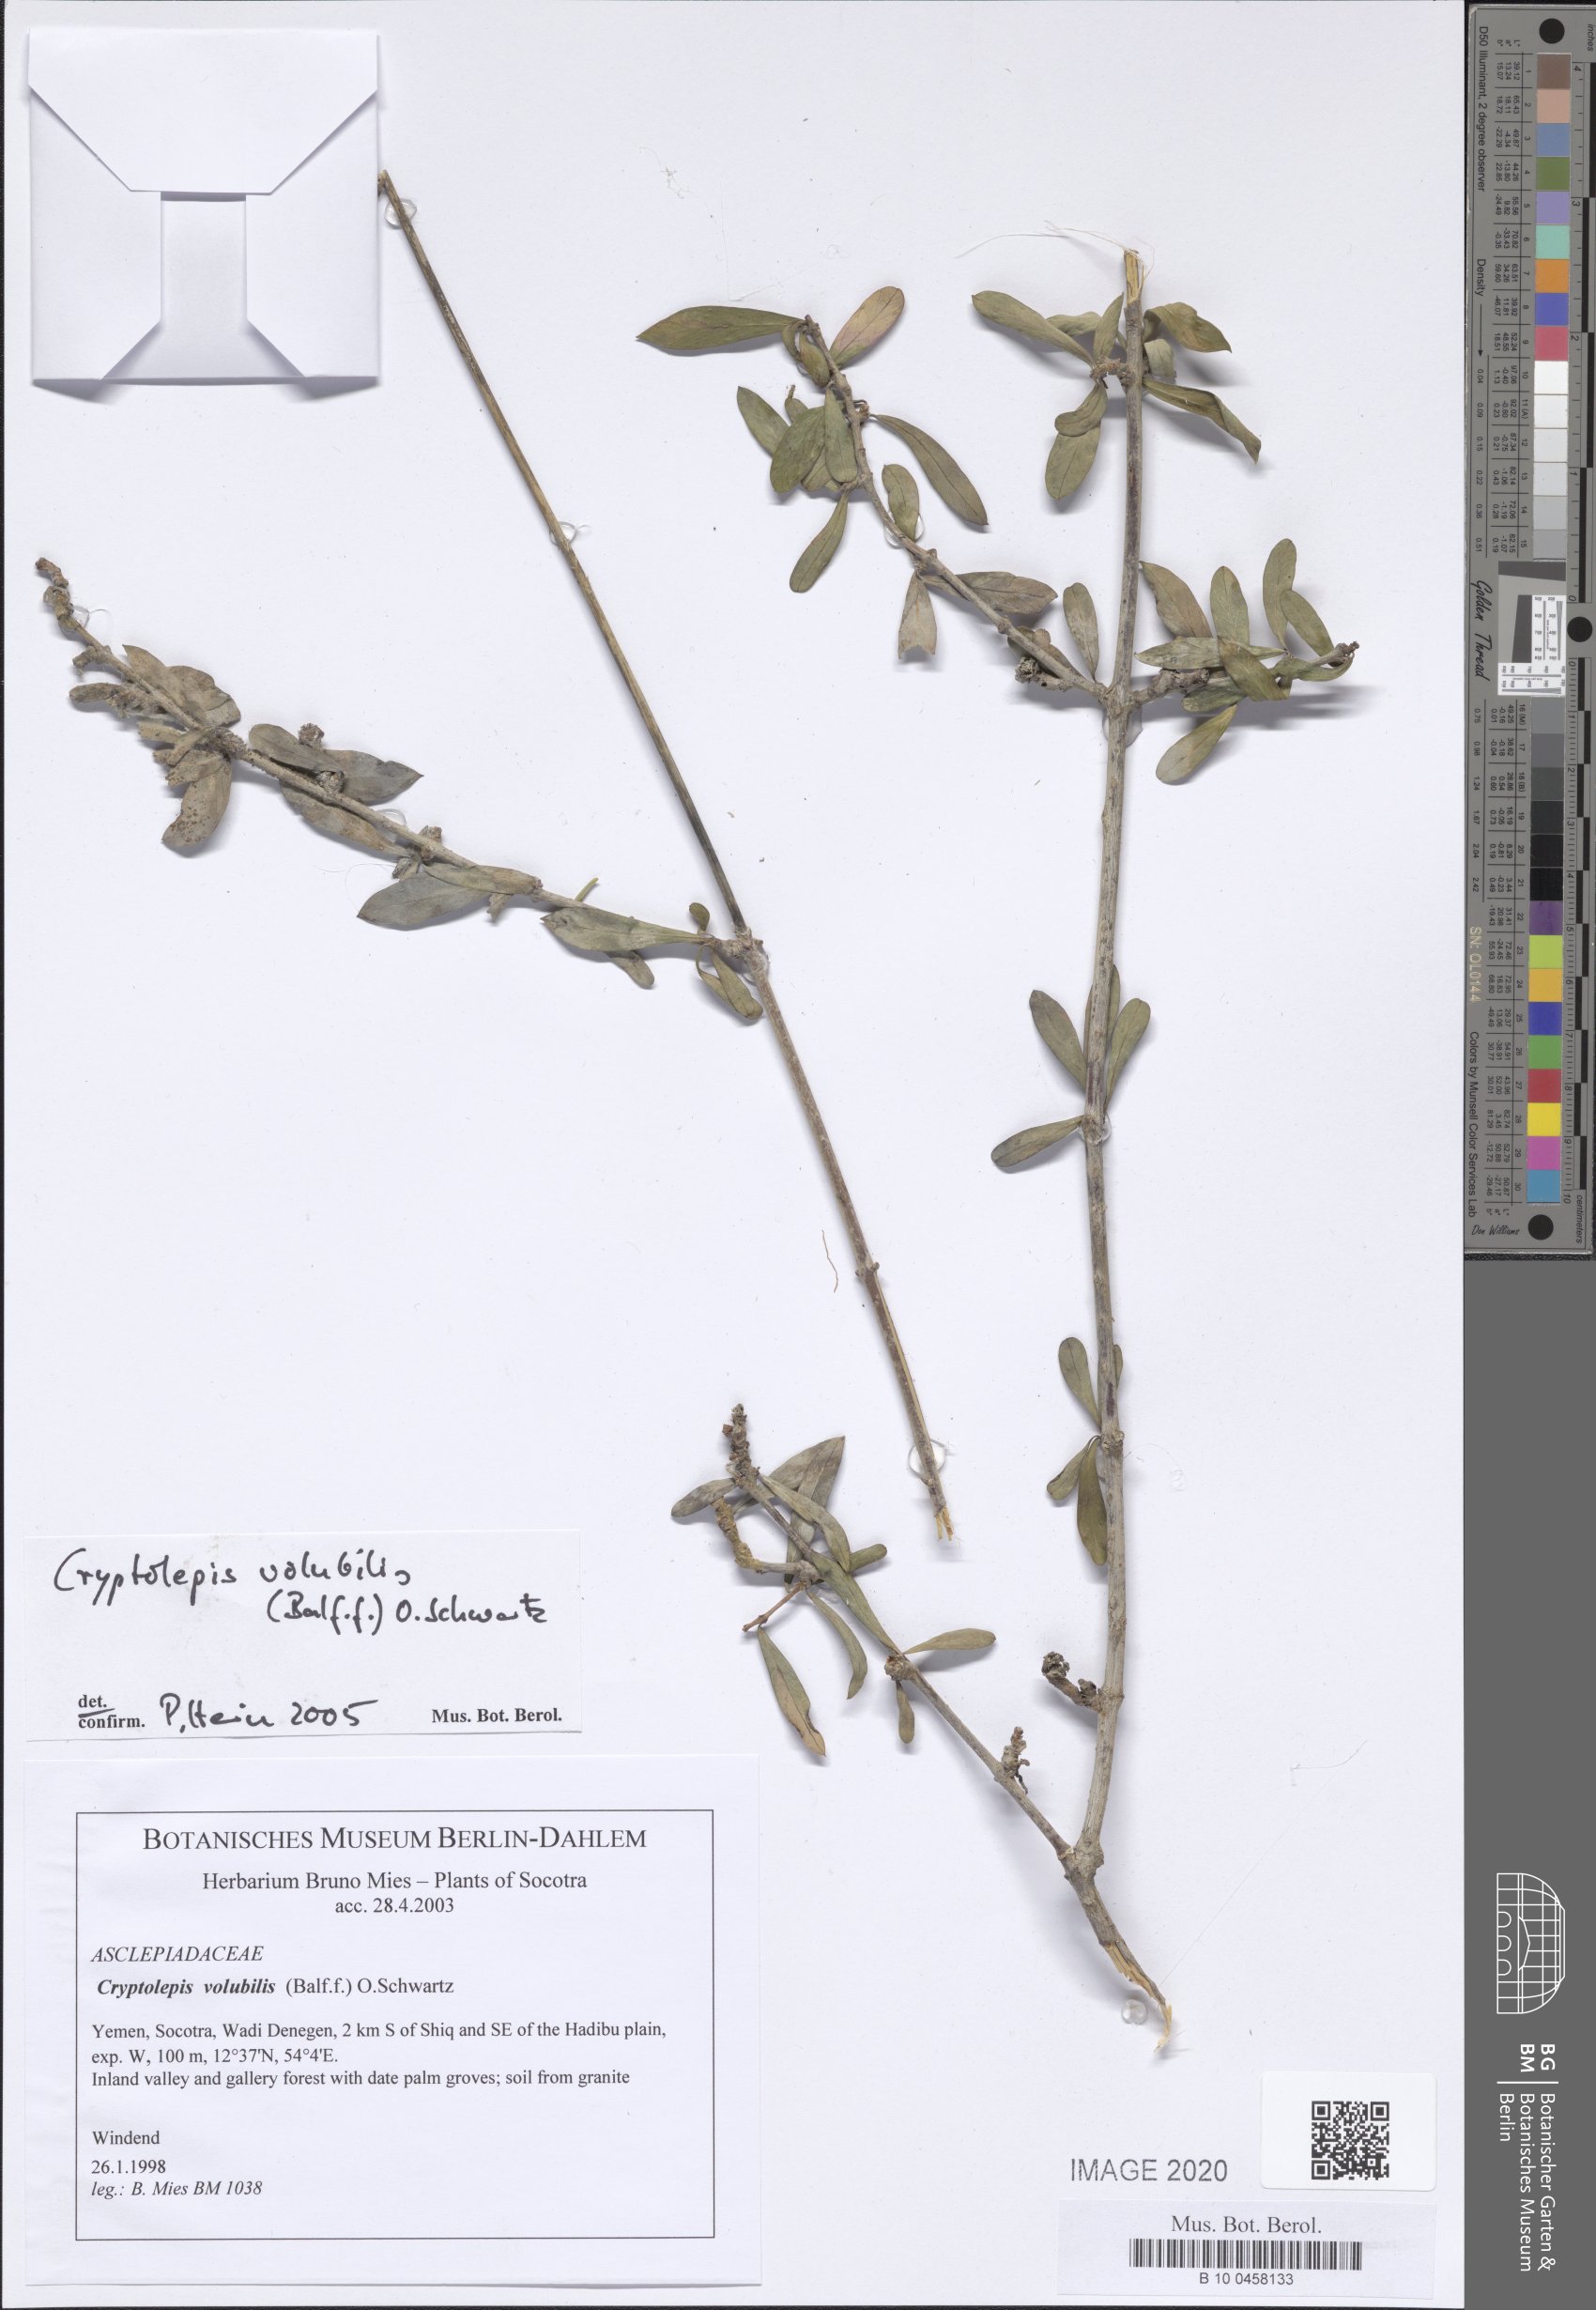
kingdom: Plantae
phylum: Tracheophyta
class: Magnoliopsida
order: Gentianales
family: Apocynaceae
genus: Cryptolepis
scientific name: Cryptolepis volubilis
